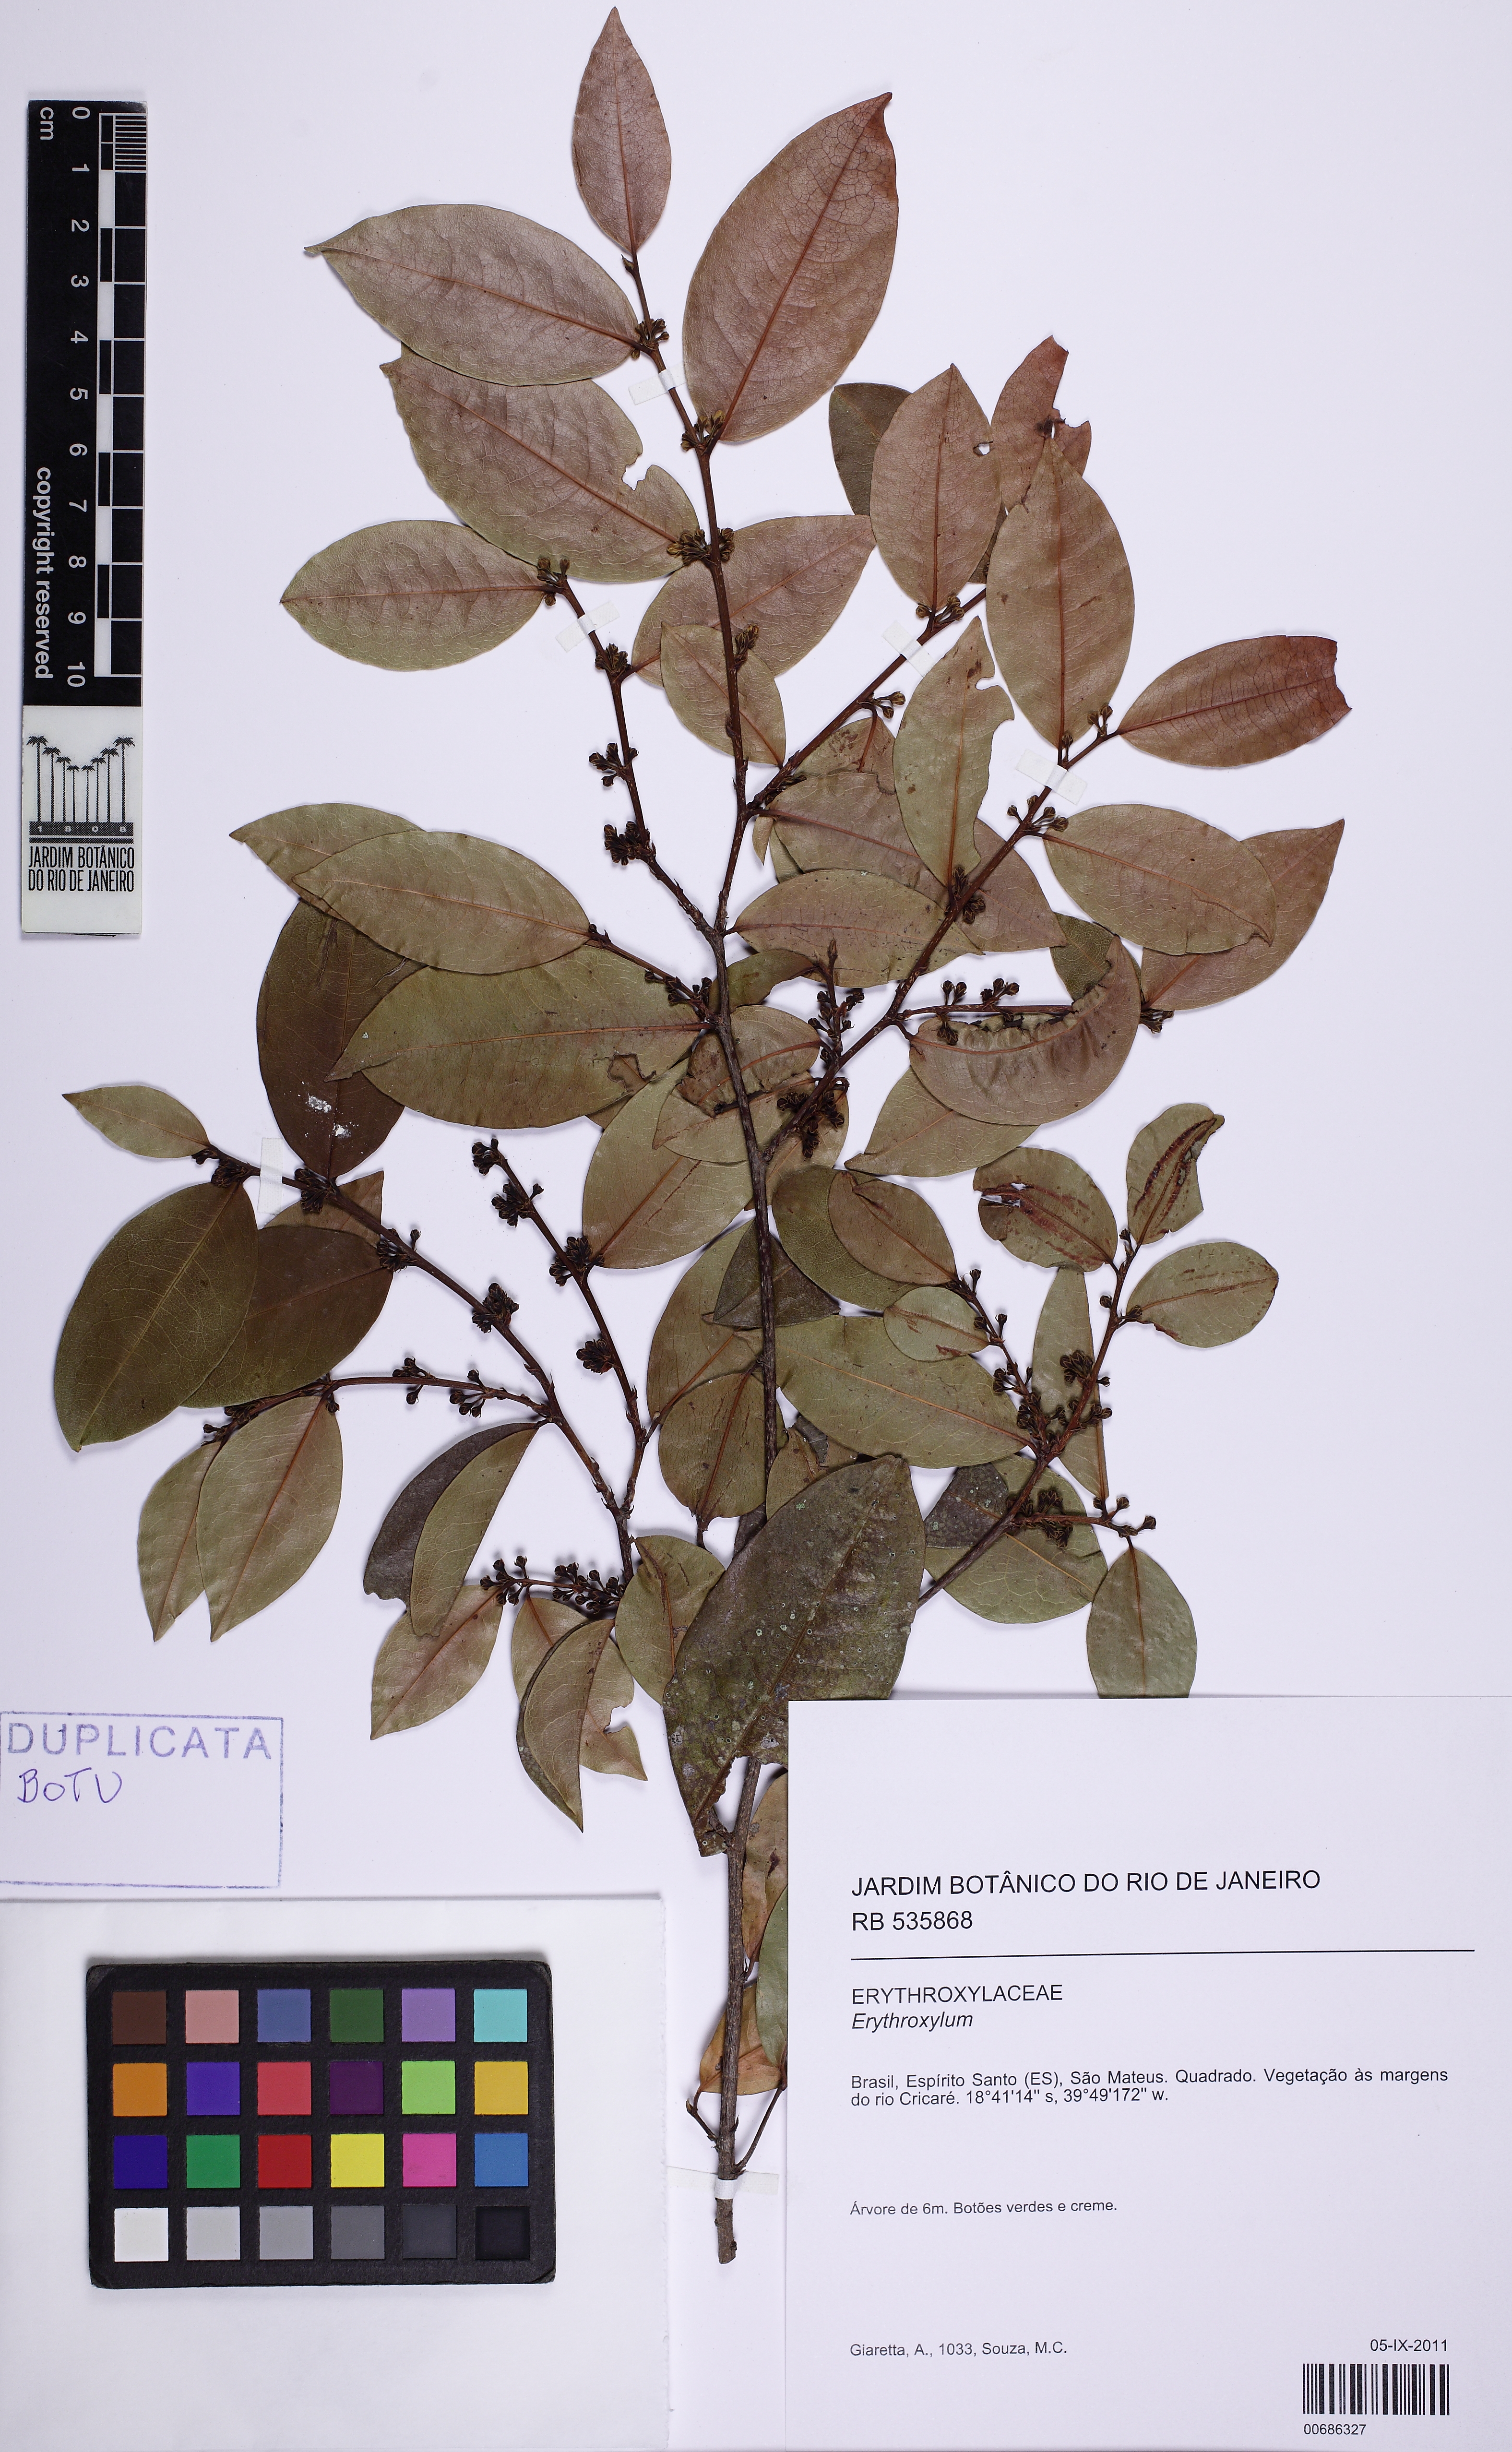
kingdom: Plantae
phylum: Tracheophyta
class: Magnoliopsida
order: Malpighiales
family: Erythroxylaceae
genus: Erythroxylum
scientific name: Erythroxylum passerinum
